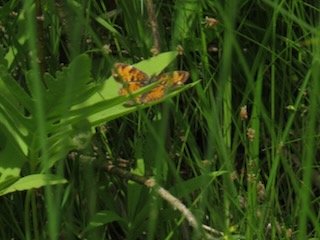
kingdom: Animalia
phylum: Arthropoda
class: Insecta
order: Lepidoptera
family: Nymphalidae
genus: Phyciodes
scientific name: Phyciodes tharos
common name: Pearl Crescent
